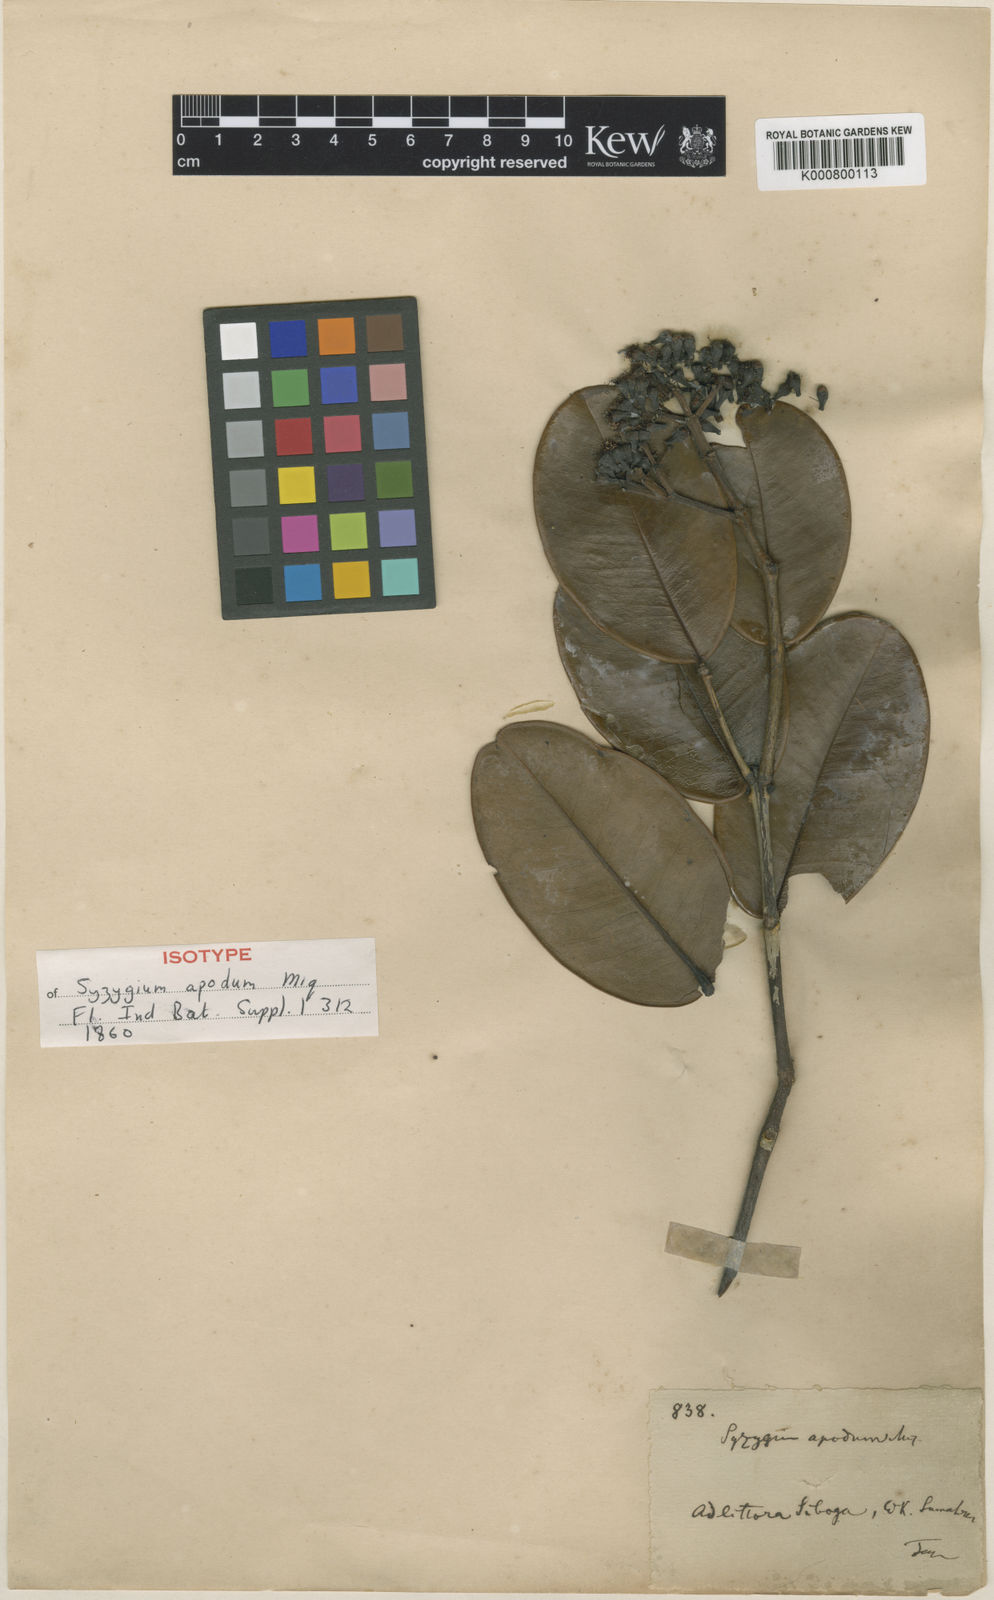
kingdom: Plantae
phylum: Tracheophyta
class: Magnoliopsida
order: Myrtales
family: Myrtaceae
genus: Syzygium
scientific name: Syzygium apodum
